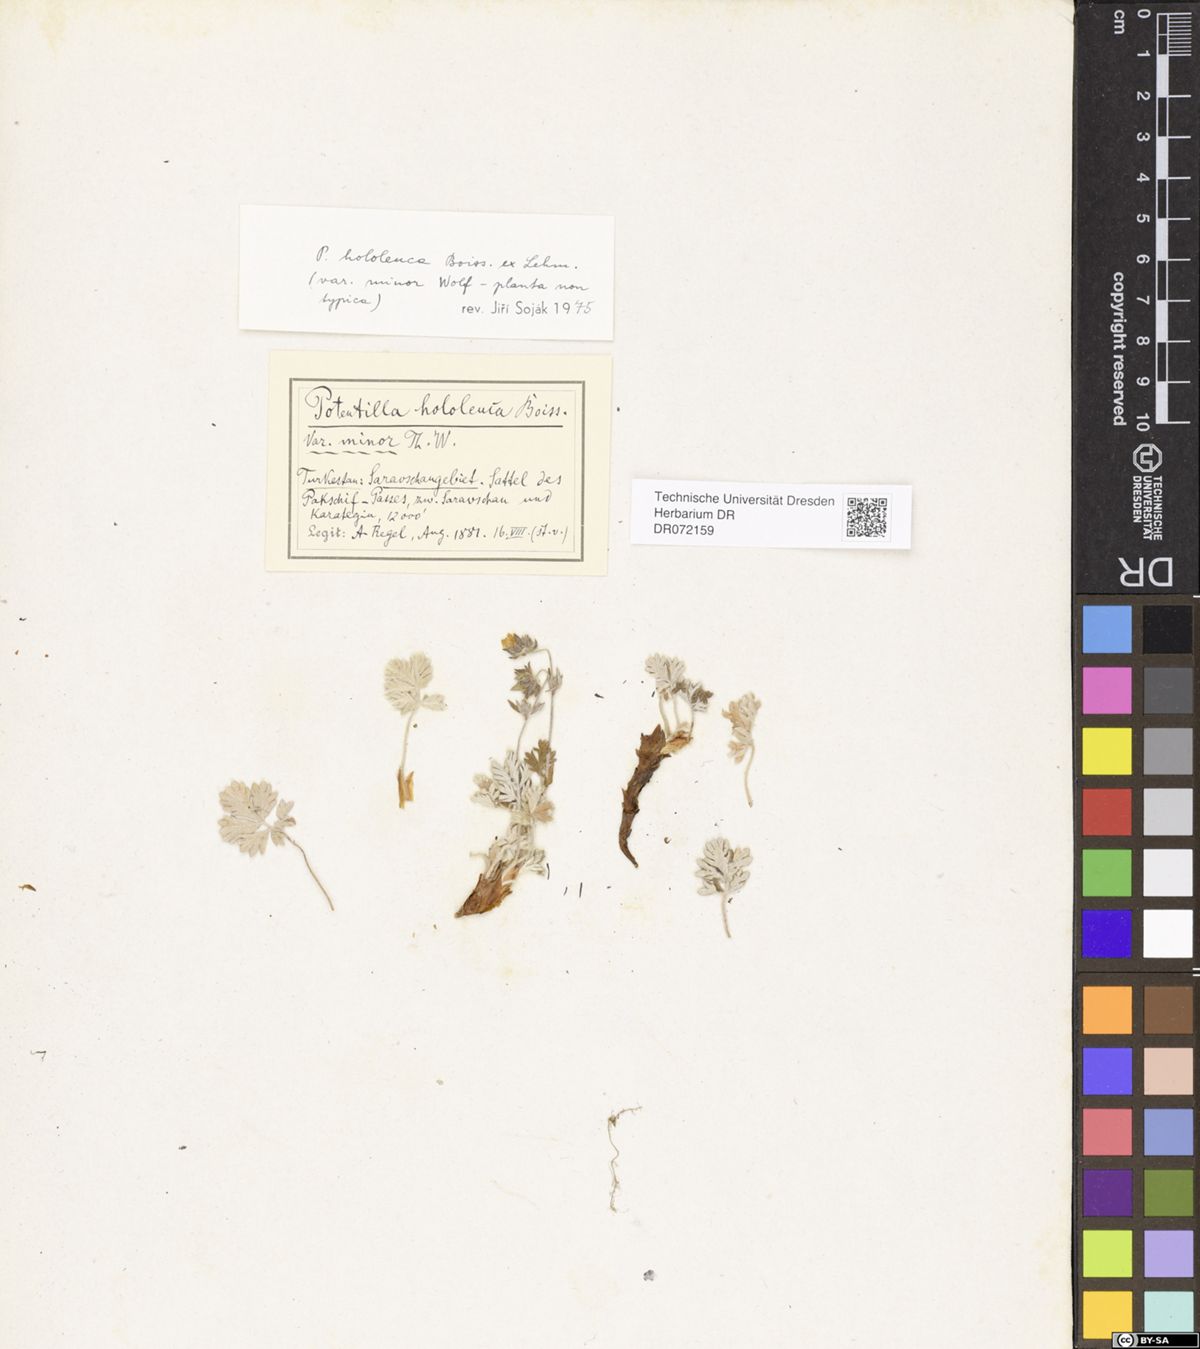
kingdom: Plantae
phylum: Tracheophyta
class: Magnoliopsida
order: Rosales
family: Rosaceae
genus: Potentilla
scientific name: Potentilla hololeuca
